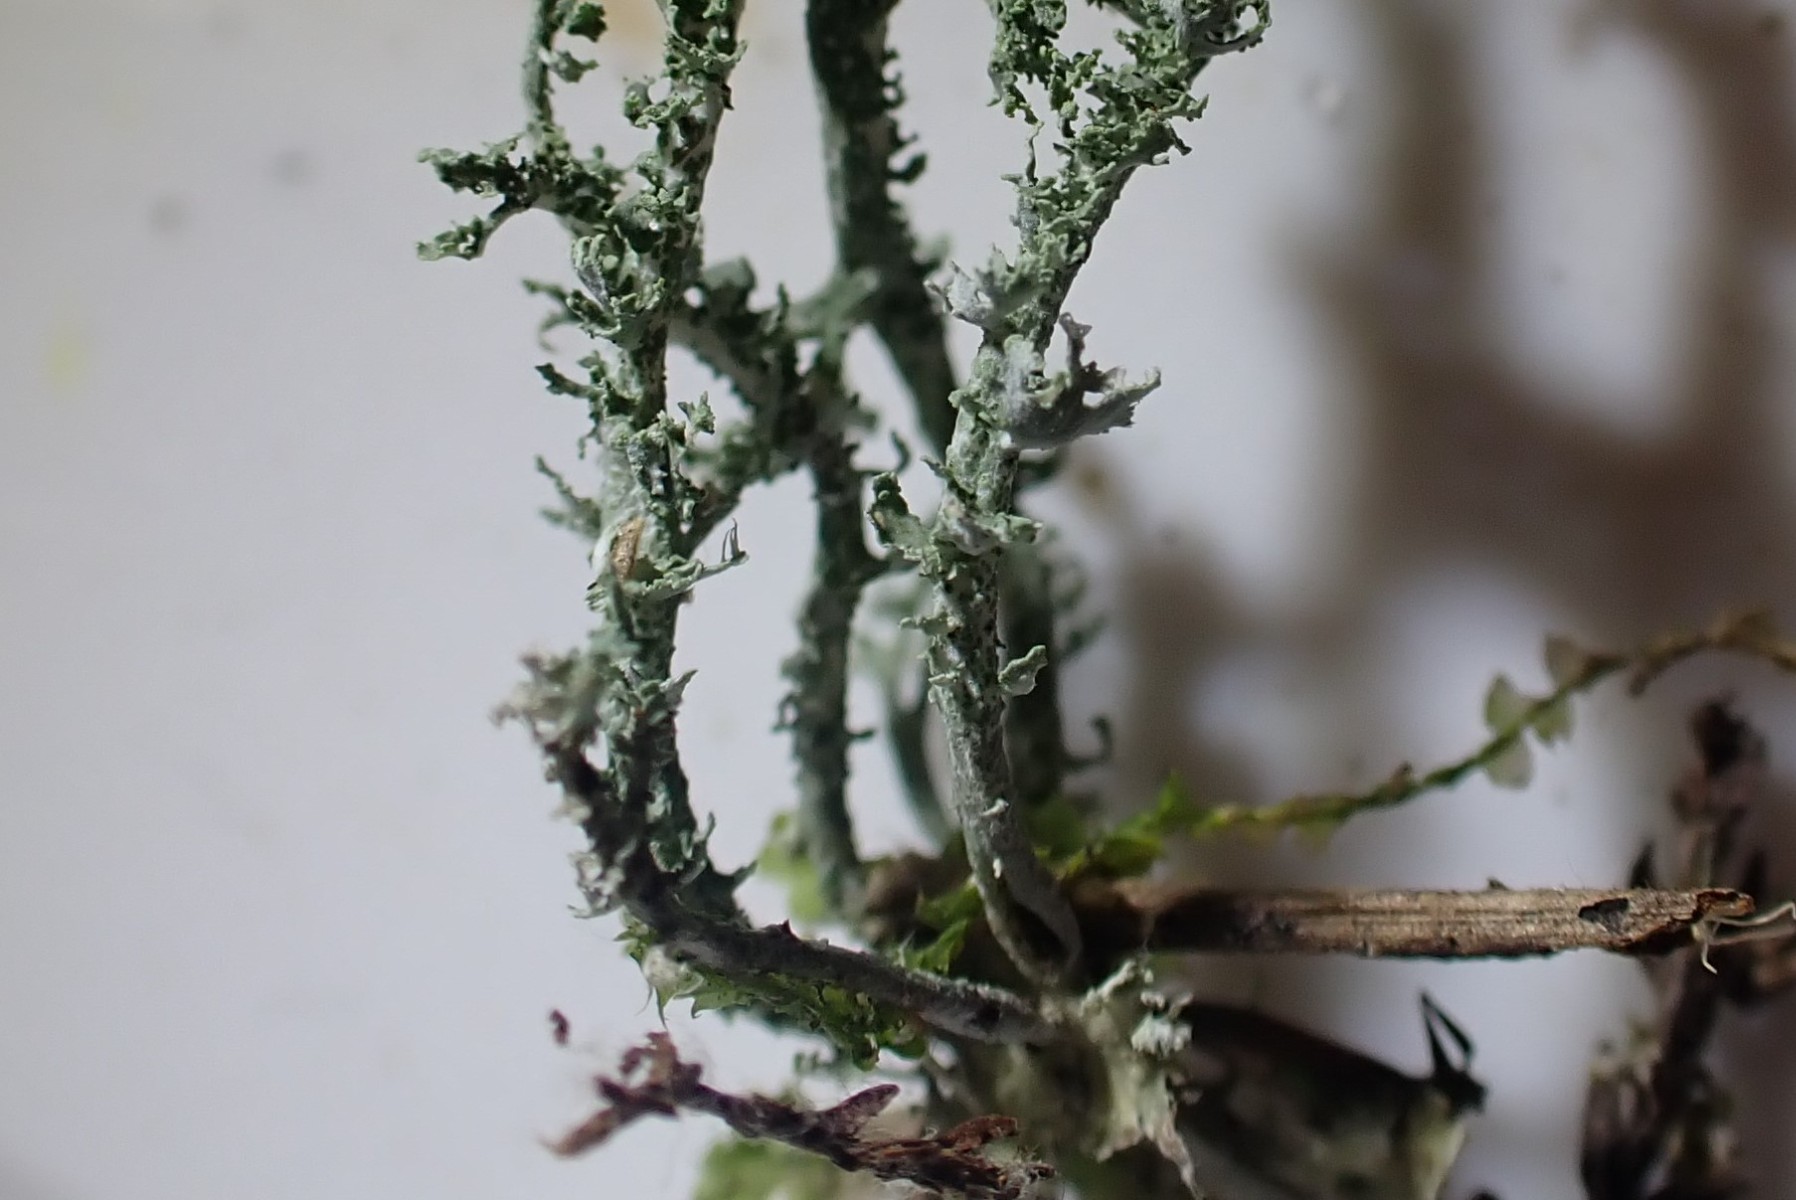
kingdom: Fungi
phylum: Ascomycota
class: Lecanoromycetes
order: Lecanorales
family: Cladoniaceae
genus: Cladonia
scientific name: Cladonia squamosa
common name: skælklædt bægerlav
